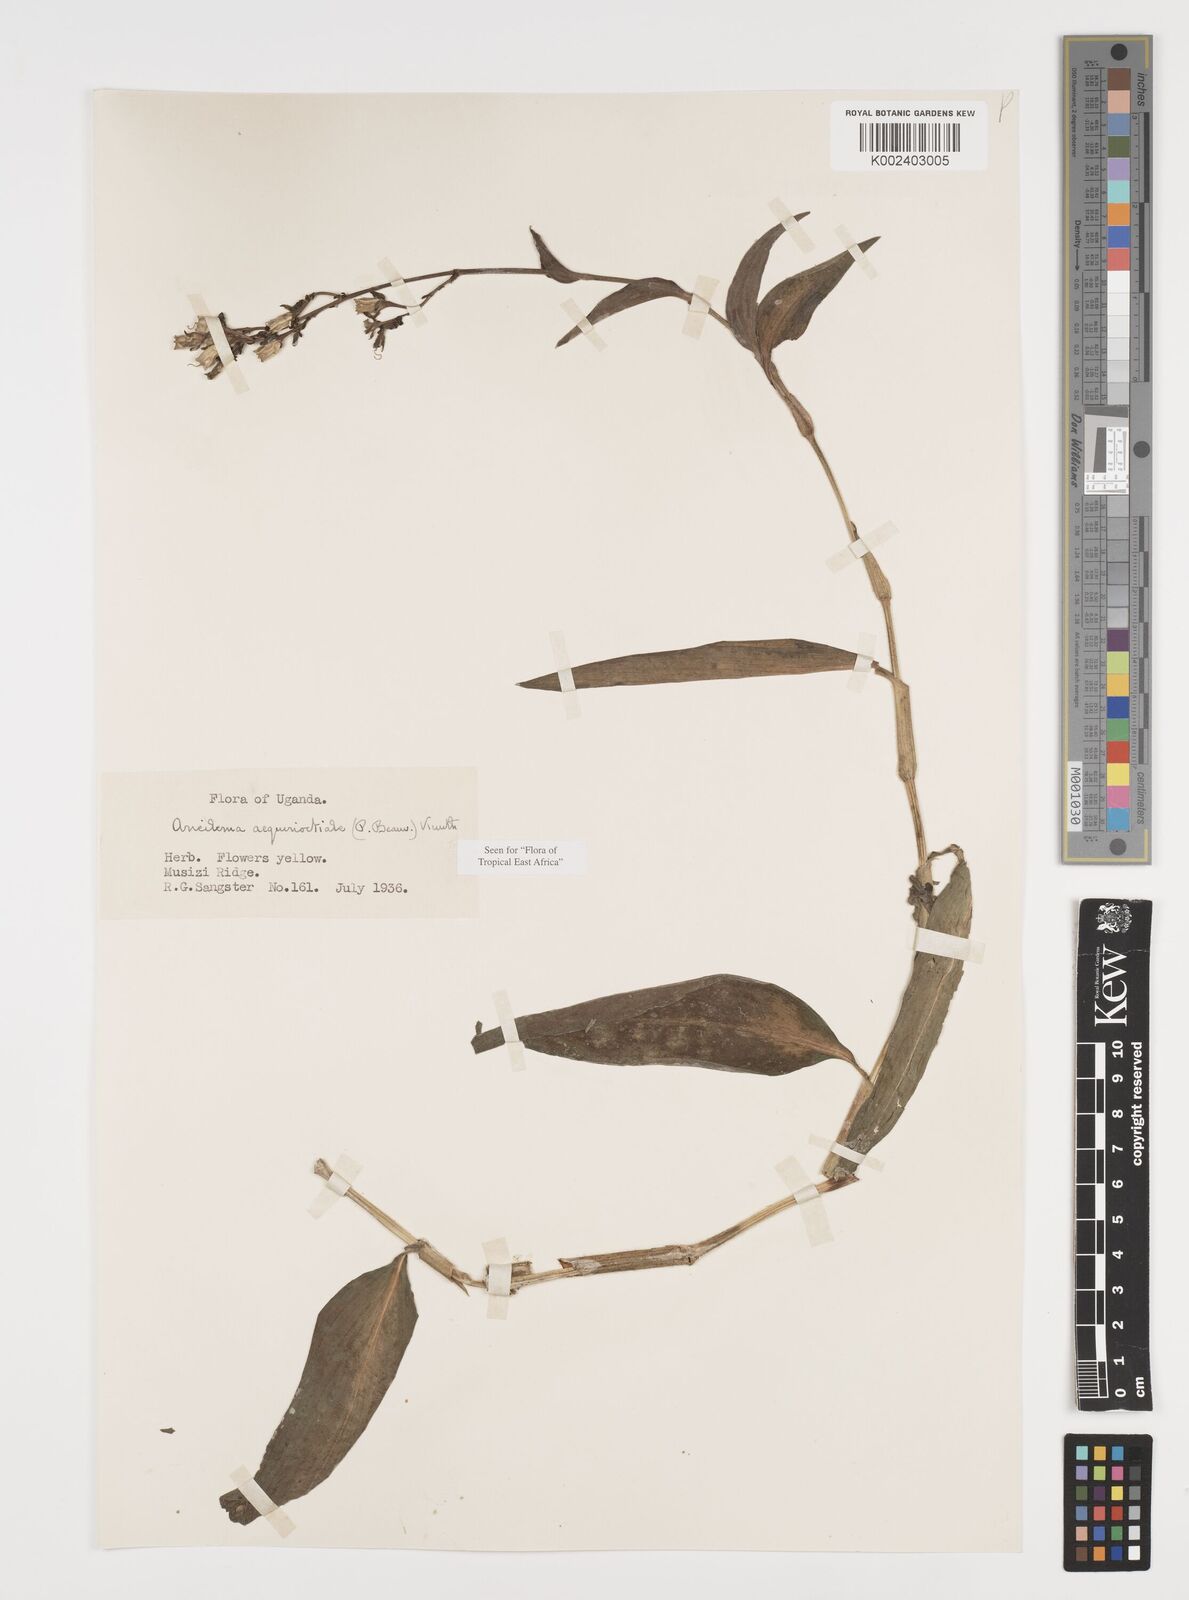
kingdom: Plantae
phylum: Tracheophyta
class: Liliopsida
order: Commelinales
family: Commelinaceae
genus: Aneilema
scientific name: Aneilema aequinoctiale
